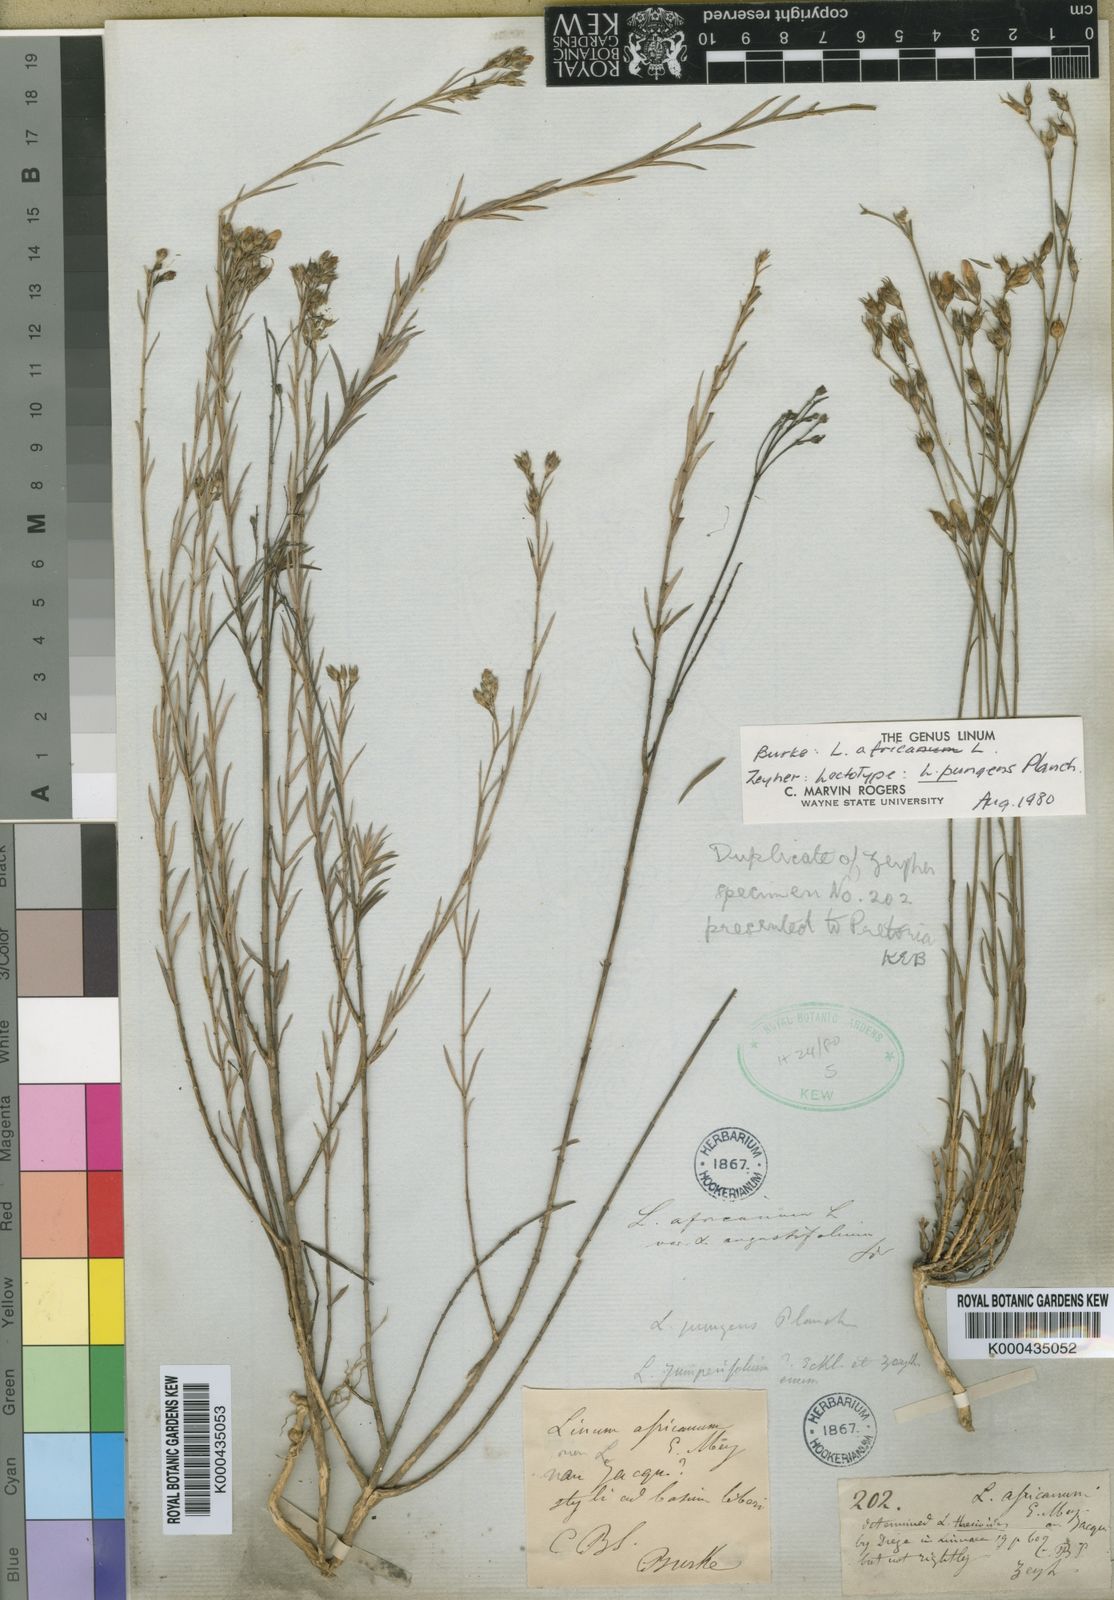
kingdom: Plantae
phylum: Tracheophyta
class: Magnoliopsida
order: Malpighiales
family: Linaceae
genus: Linum
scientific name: Linum africanum
